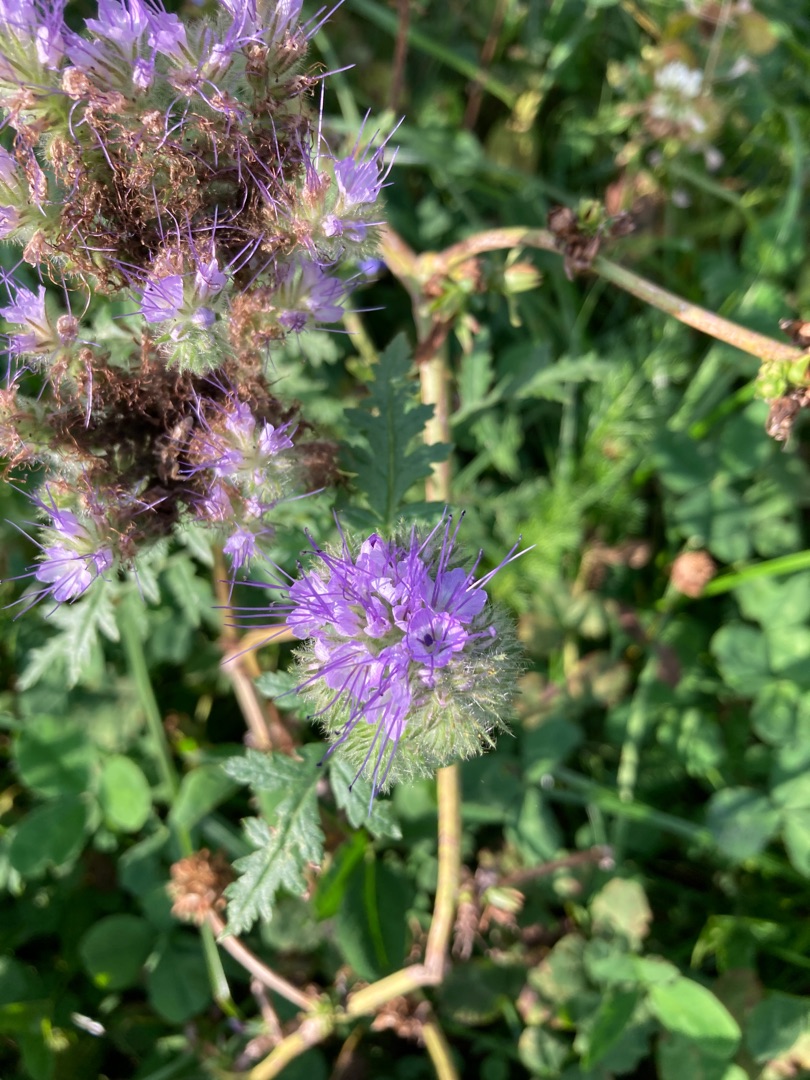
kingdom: Plantae
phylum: Tracheophyta
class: Magnoliopsida
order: Boraginales
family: Hydrophyllaceae
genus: Phacelia
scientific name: Phacelia tanacetifolia
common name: Honningurt
